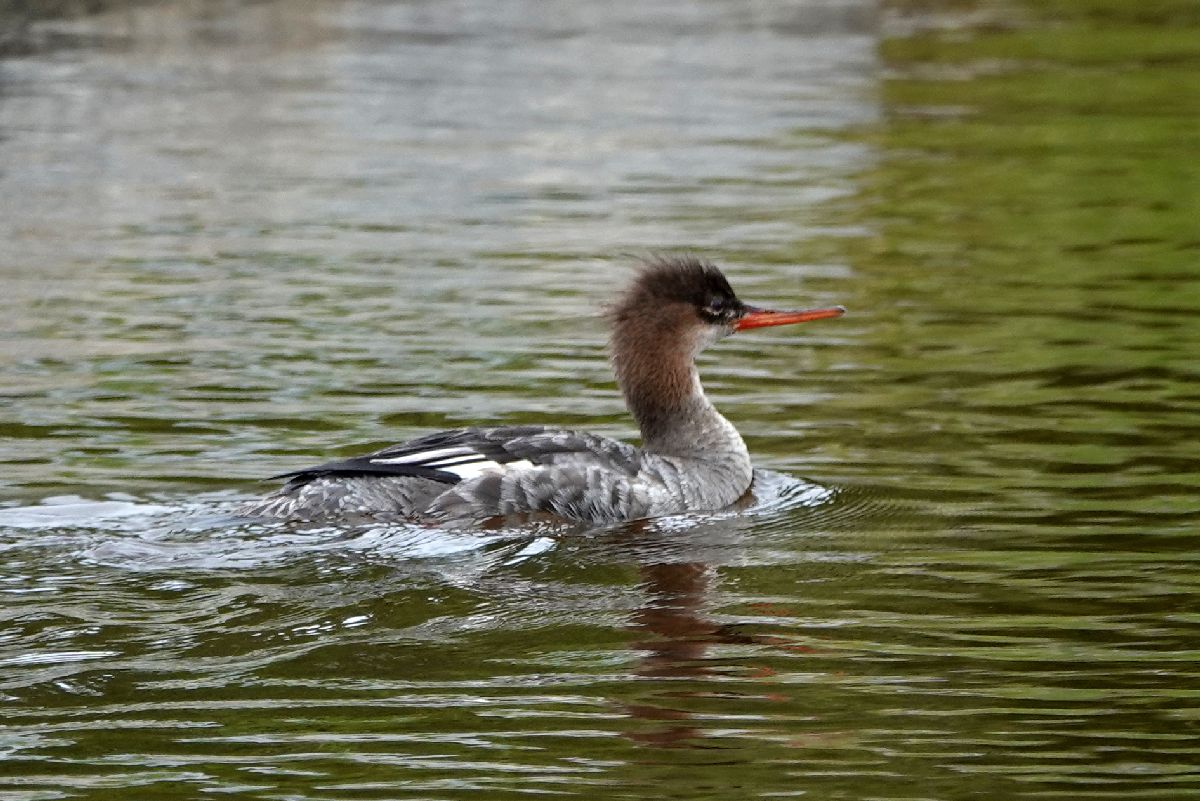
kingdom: Animalia
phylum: Chordata
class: Aves
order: Anseriformes
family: Anatidae
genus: Mergus
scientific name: Mergus serrator
